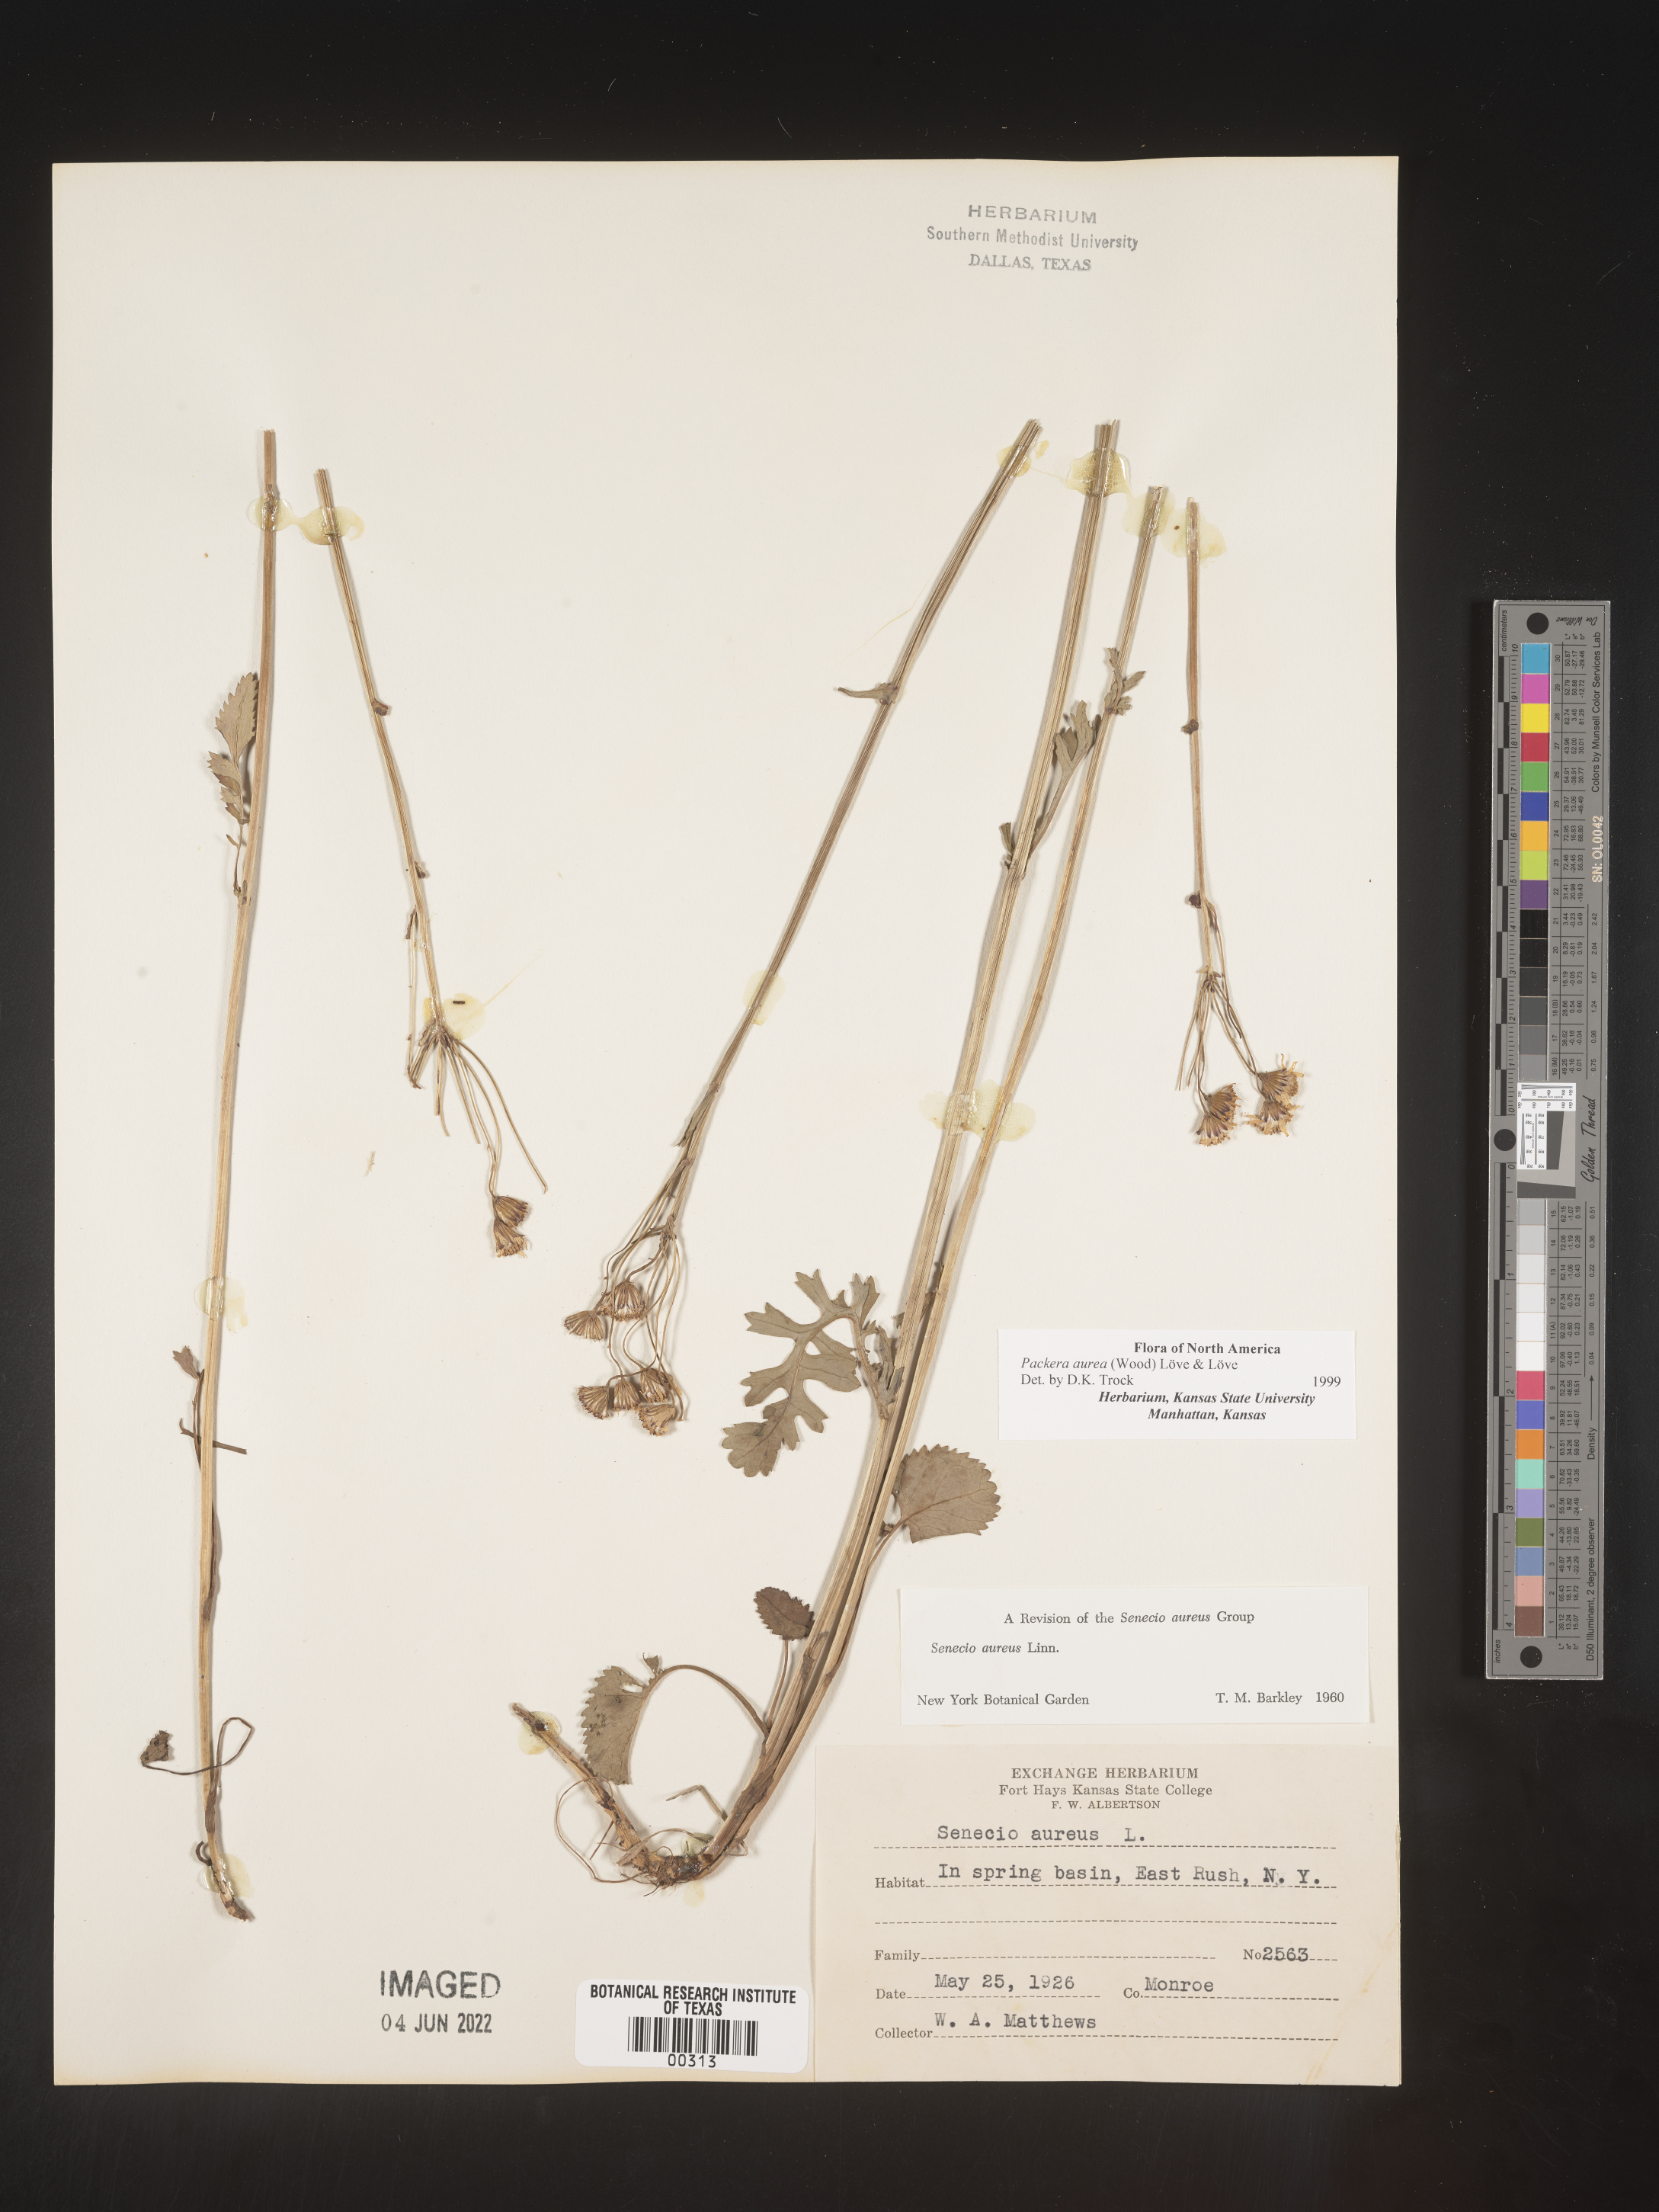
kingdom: Plantae
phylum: Tracheophyta
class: Magnoliopsida
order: Asterales
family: Asteraceae
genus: Packera
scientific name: Packera aurea
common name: Golden groundsel
